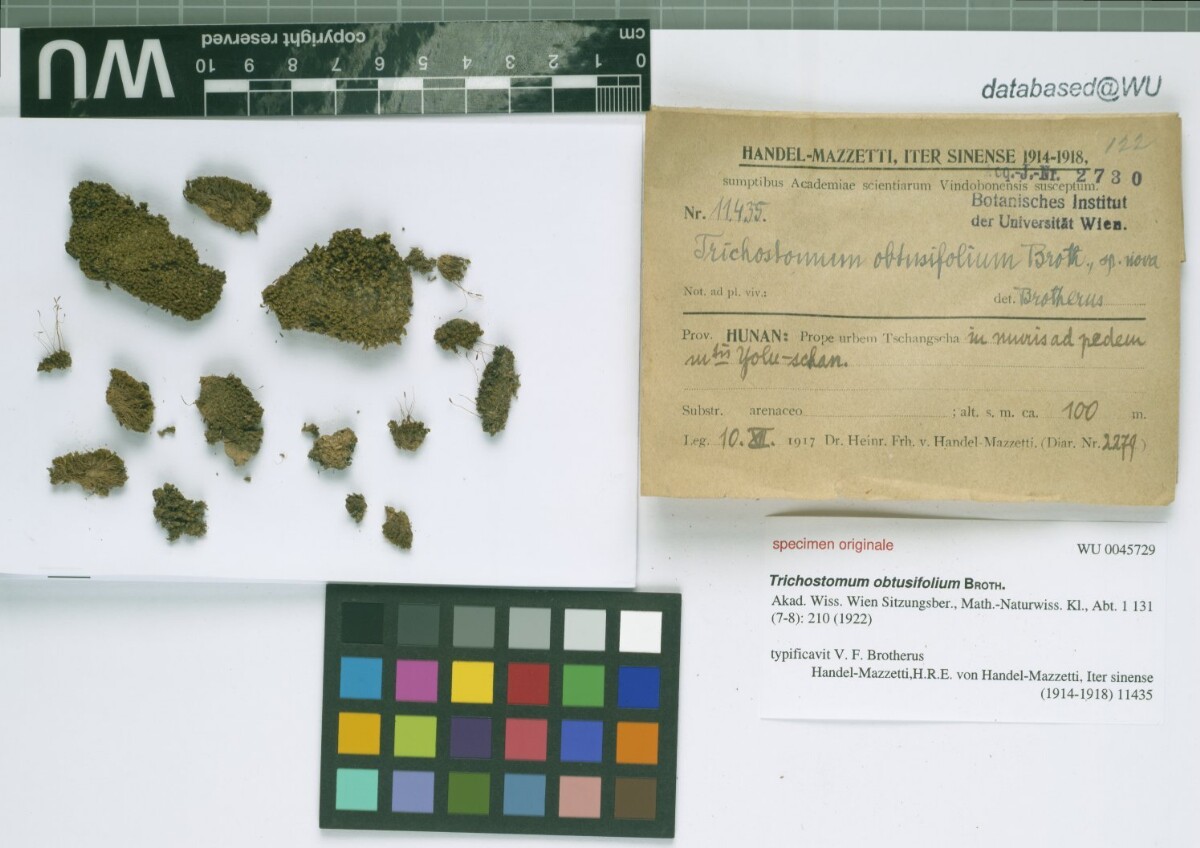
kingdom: Plantae
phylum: Bryophyta
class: Bryopsida
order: Pottiales
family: Pottiaceae
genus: Barbula
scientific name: Barbula chenia
